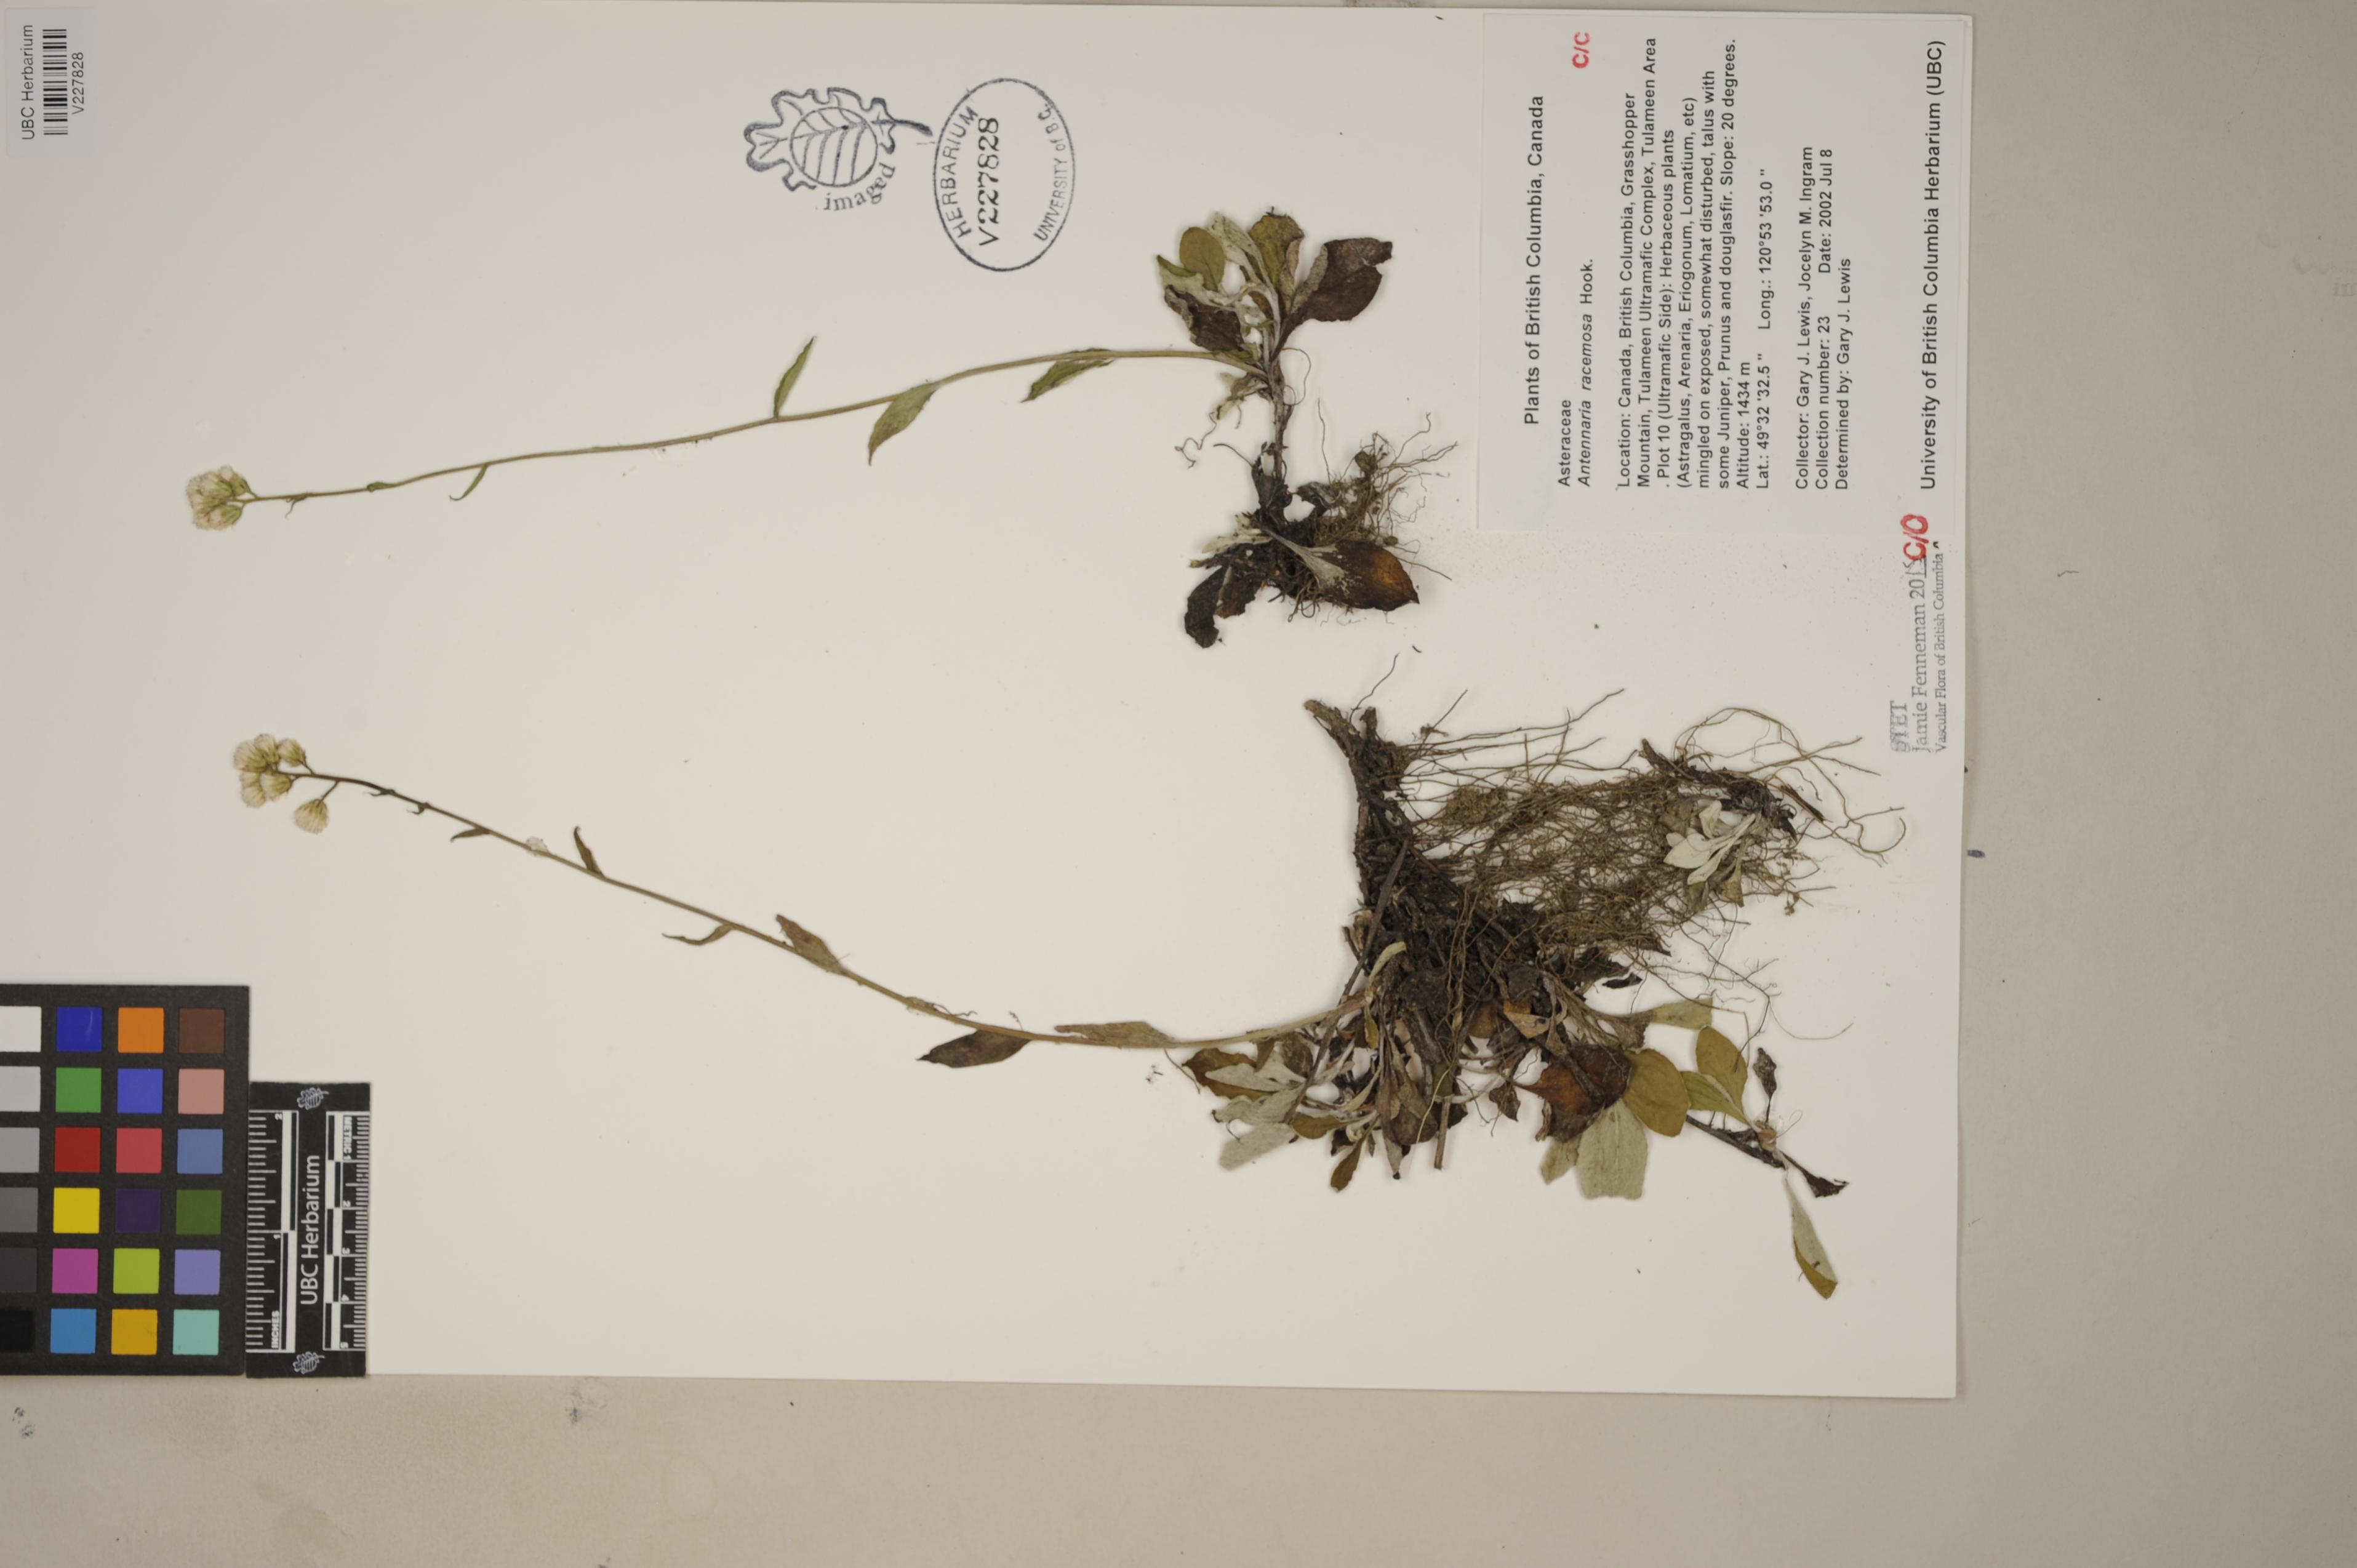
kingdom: Plantae
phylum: Tracheophyta
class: Magnoliopsida
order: Asterales
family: Asteraceae
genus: Antennaria
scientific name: Antennaria racemosa
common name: Racemose pussytoes
